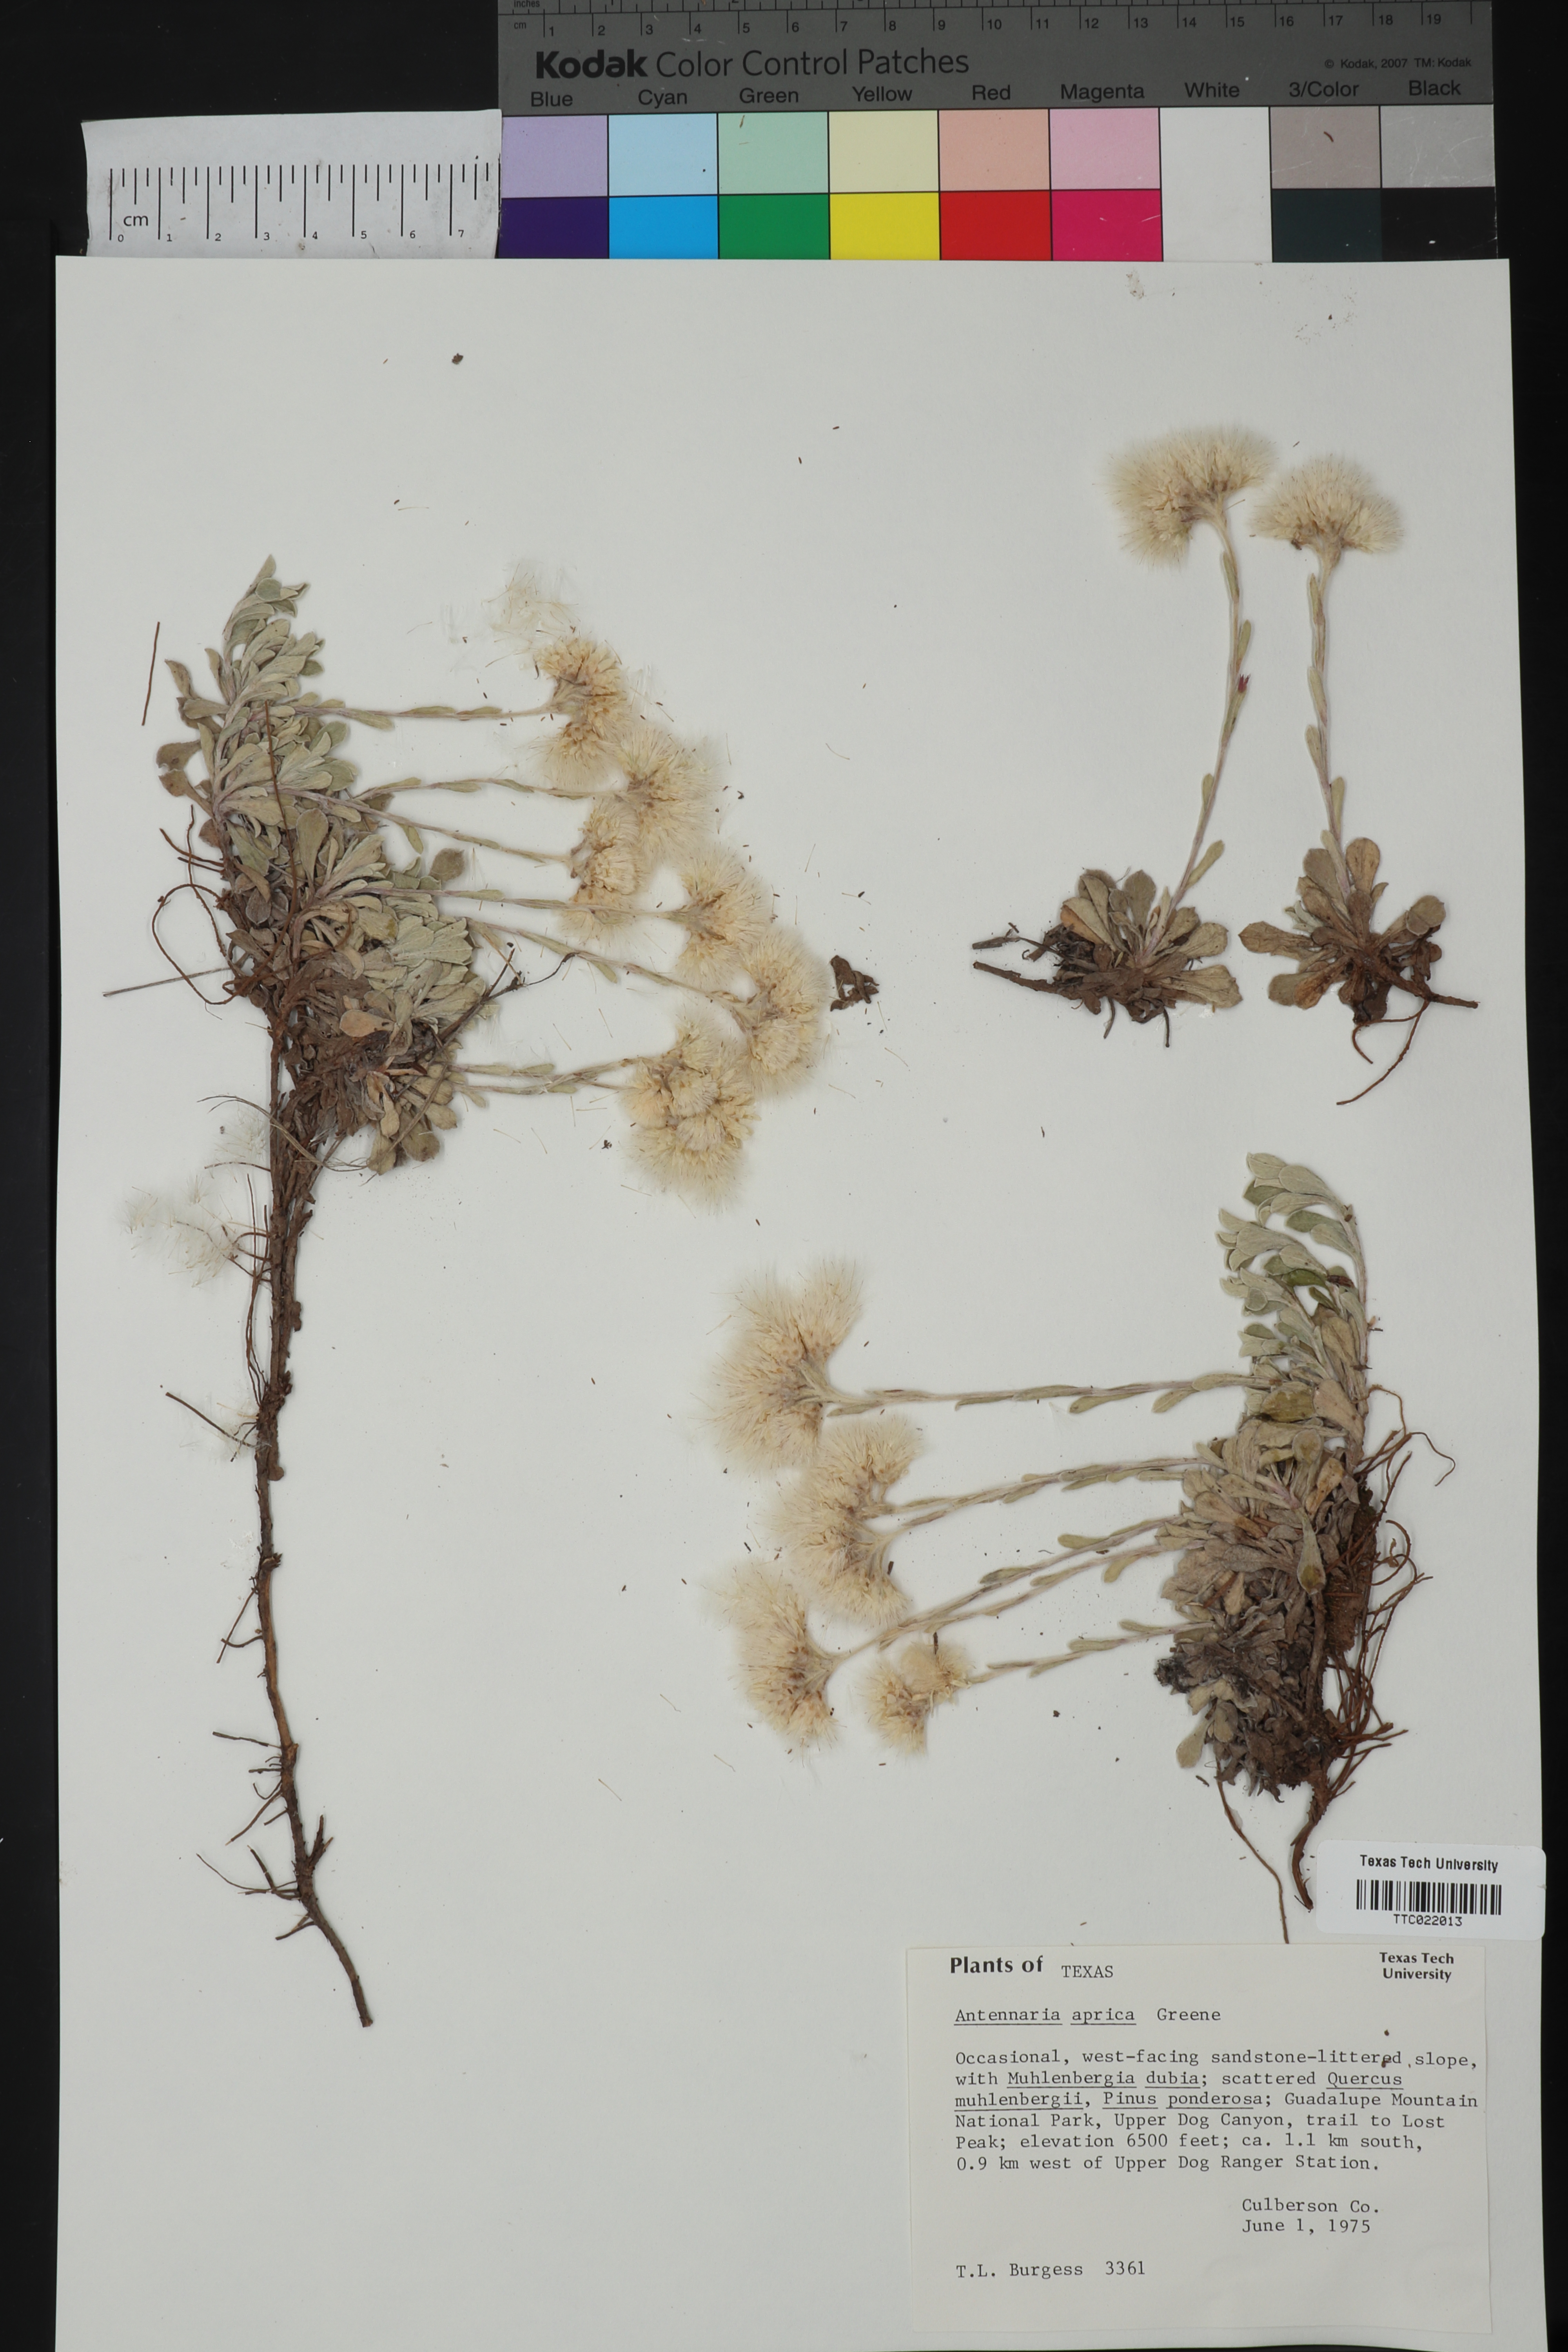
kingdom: Plantae
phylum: Tracheophyta
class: Magnoliopsida
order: Asterales
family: Asteraceae
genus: Antennaria
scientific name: Antennaria parvifolia
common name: Nuttall's pussytoes
